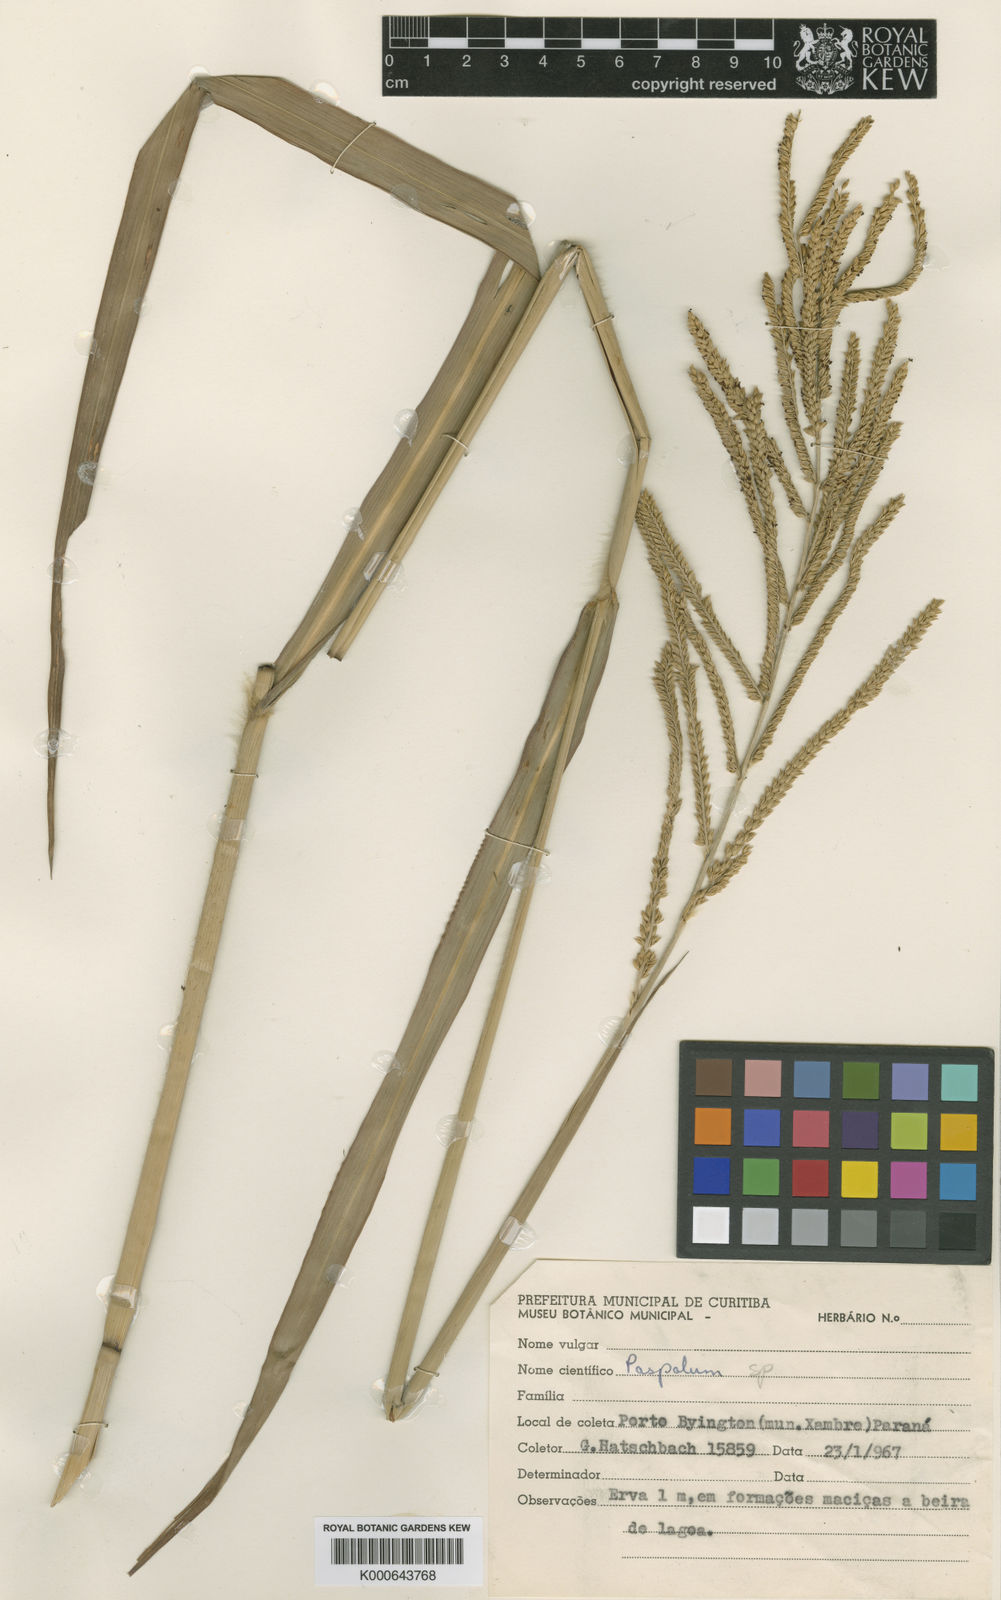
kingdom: Plantae
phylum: Tracheophyta
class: Liliopsida
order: Poales
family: Poaceae
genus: Paspalum
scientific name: Paspalum glabrinode
